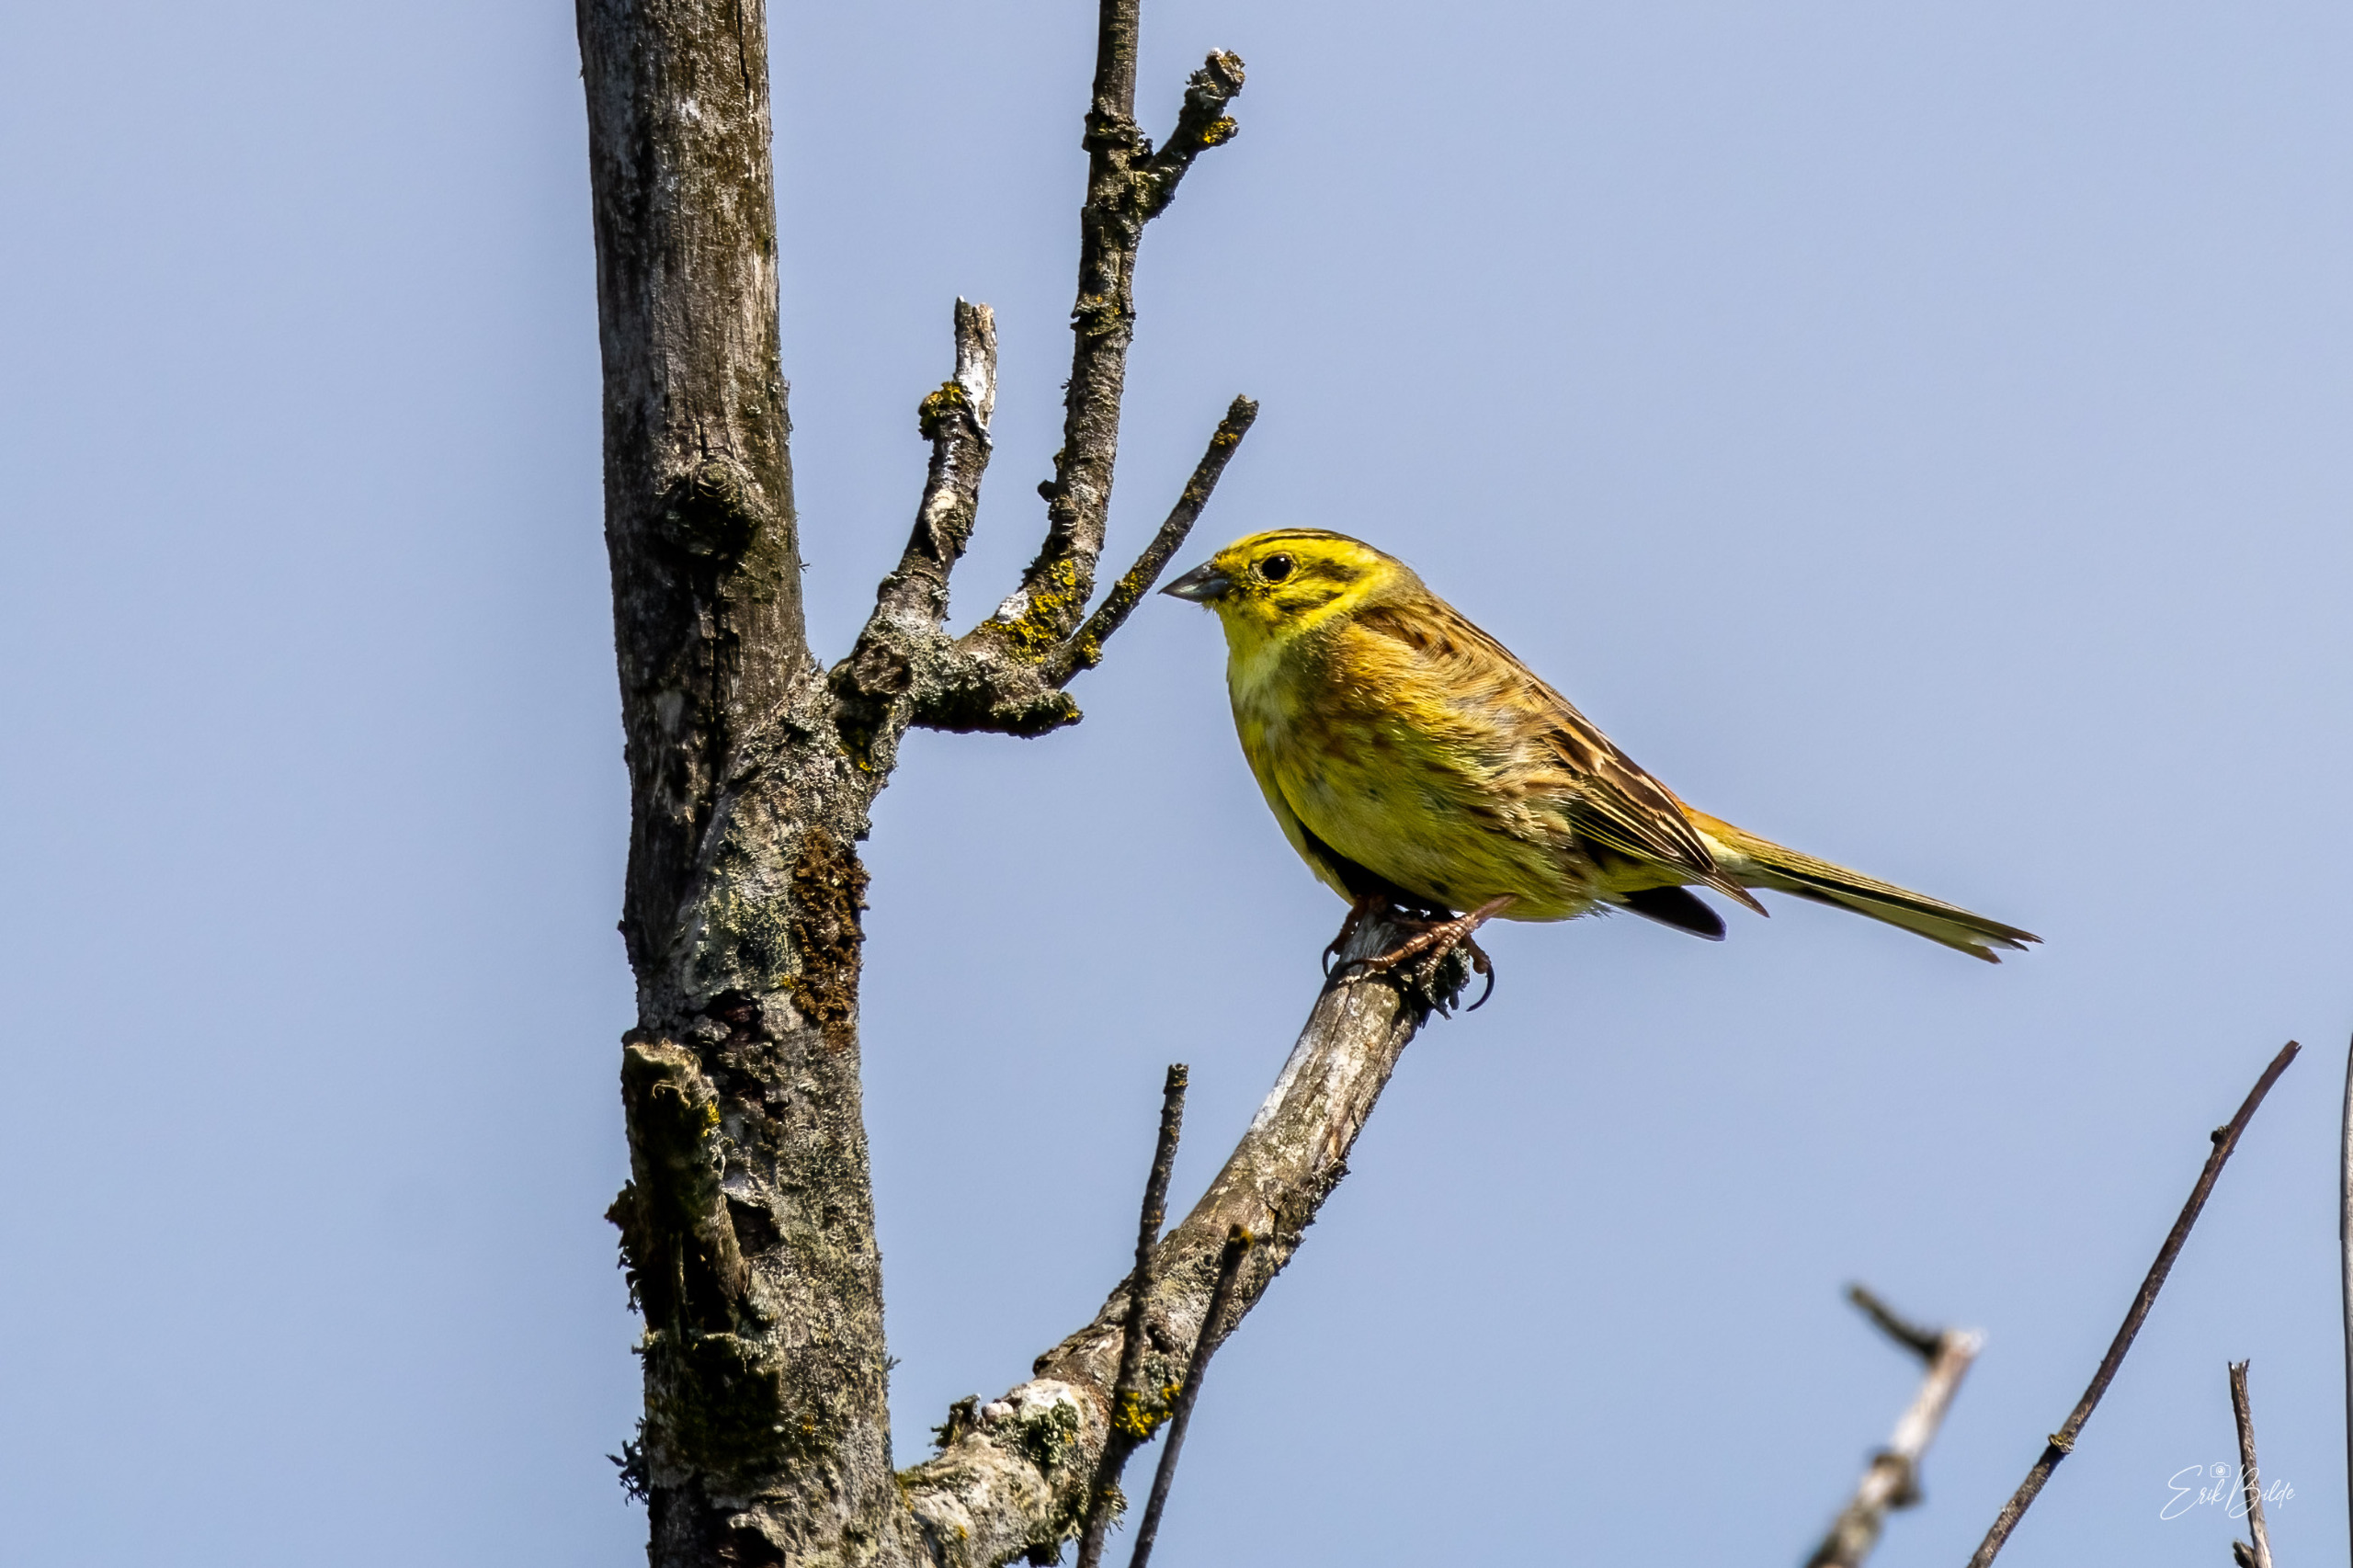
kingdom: Animalia
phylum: Chordata
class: Aves
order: Passeriformes
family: Emberizidae
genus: Emberiza
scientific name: Emberiza citrinella
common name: Gulspurv
